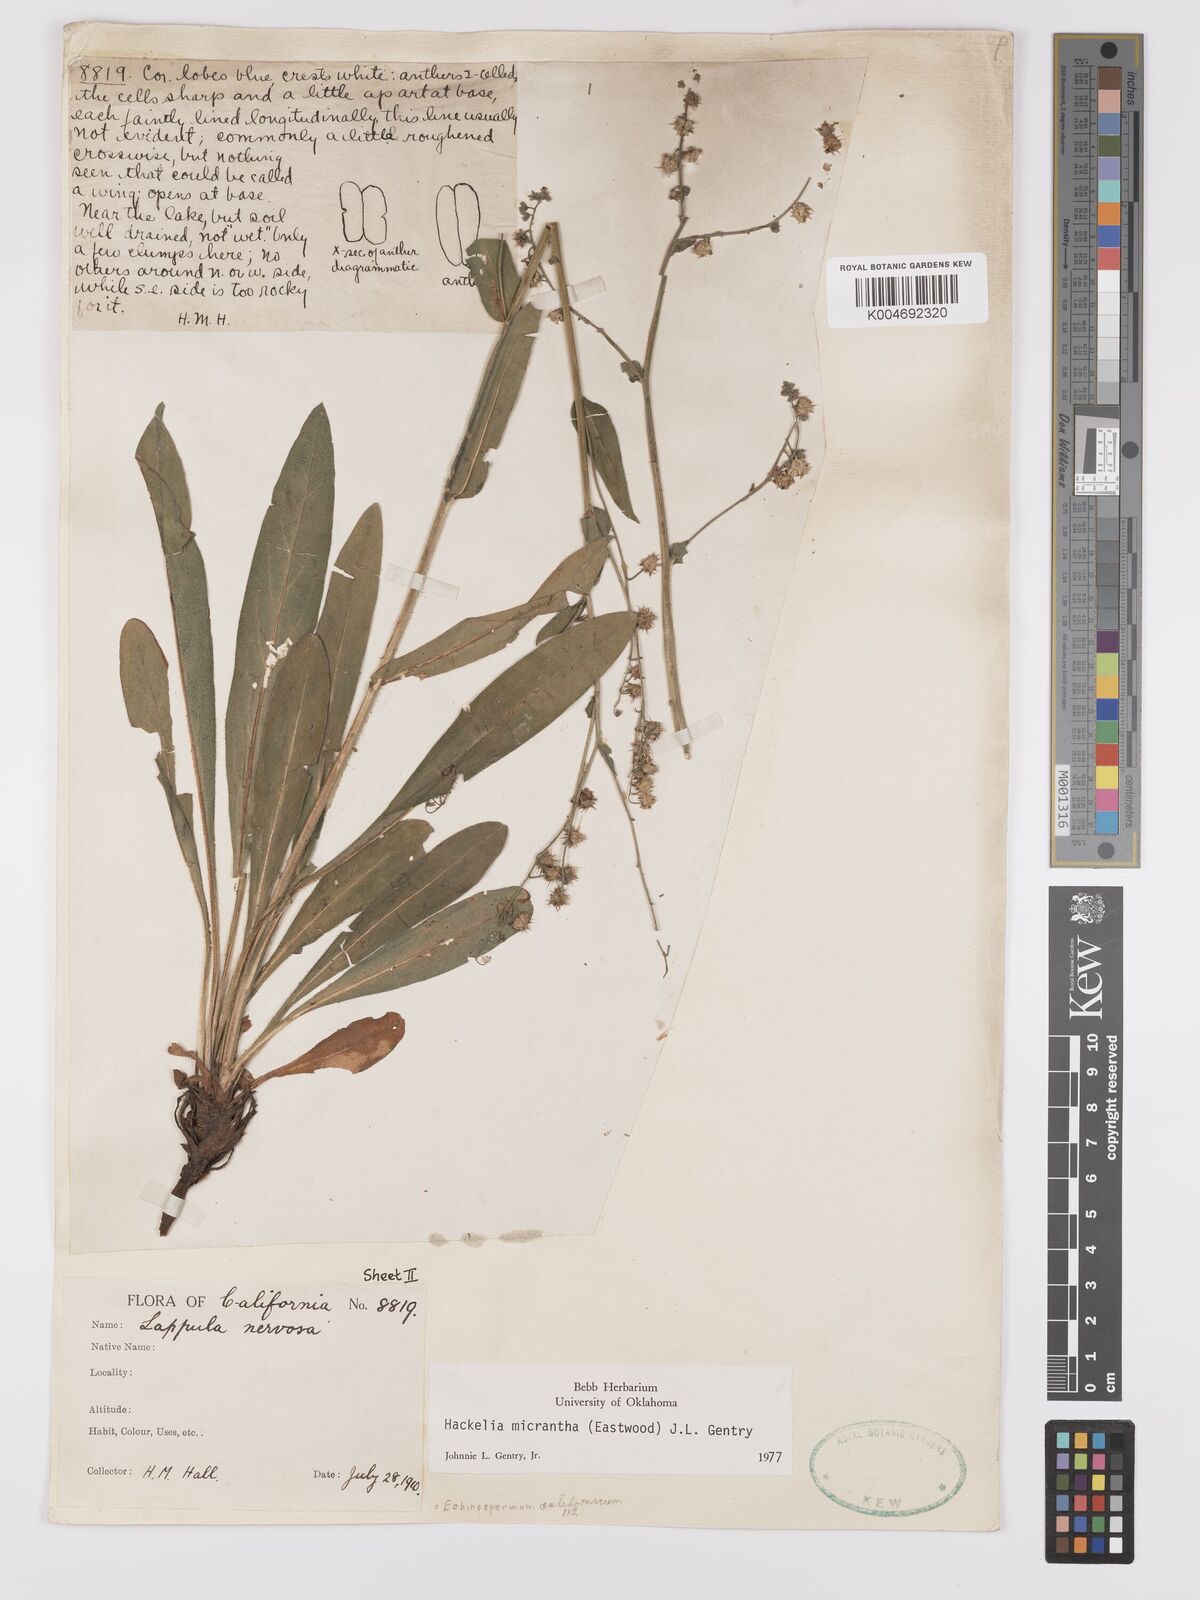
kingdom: Plantae
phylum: Tracheophyta
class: Magnoliopsida
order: Boraginales
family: Boraginaceae
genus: Hackelia
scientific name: Hackelia micrantha
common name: Meadow stickseed
